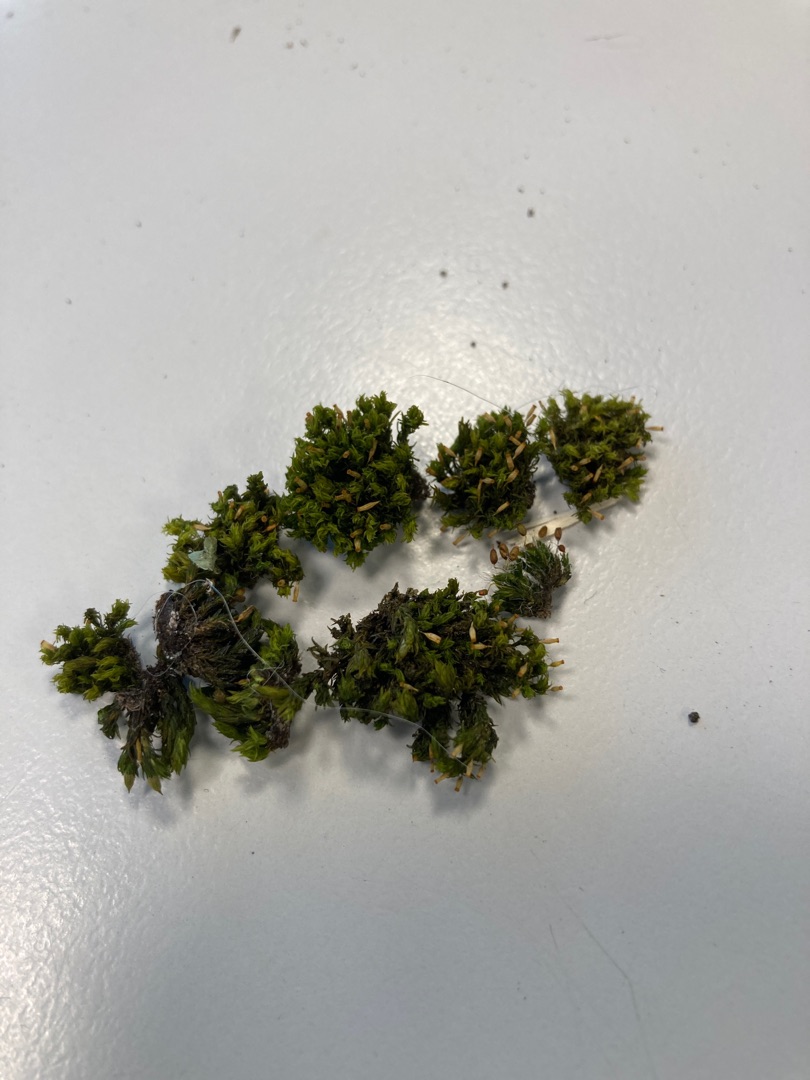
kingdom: Plantae
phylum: Bryophyta
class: Bryopsida
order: Orthotrichales
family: Orthotrichaceae
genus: Orthotrichum
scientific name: Orthotrichum pulchellum
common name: Smuk furehætte
